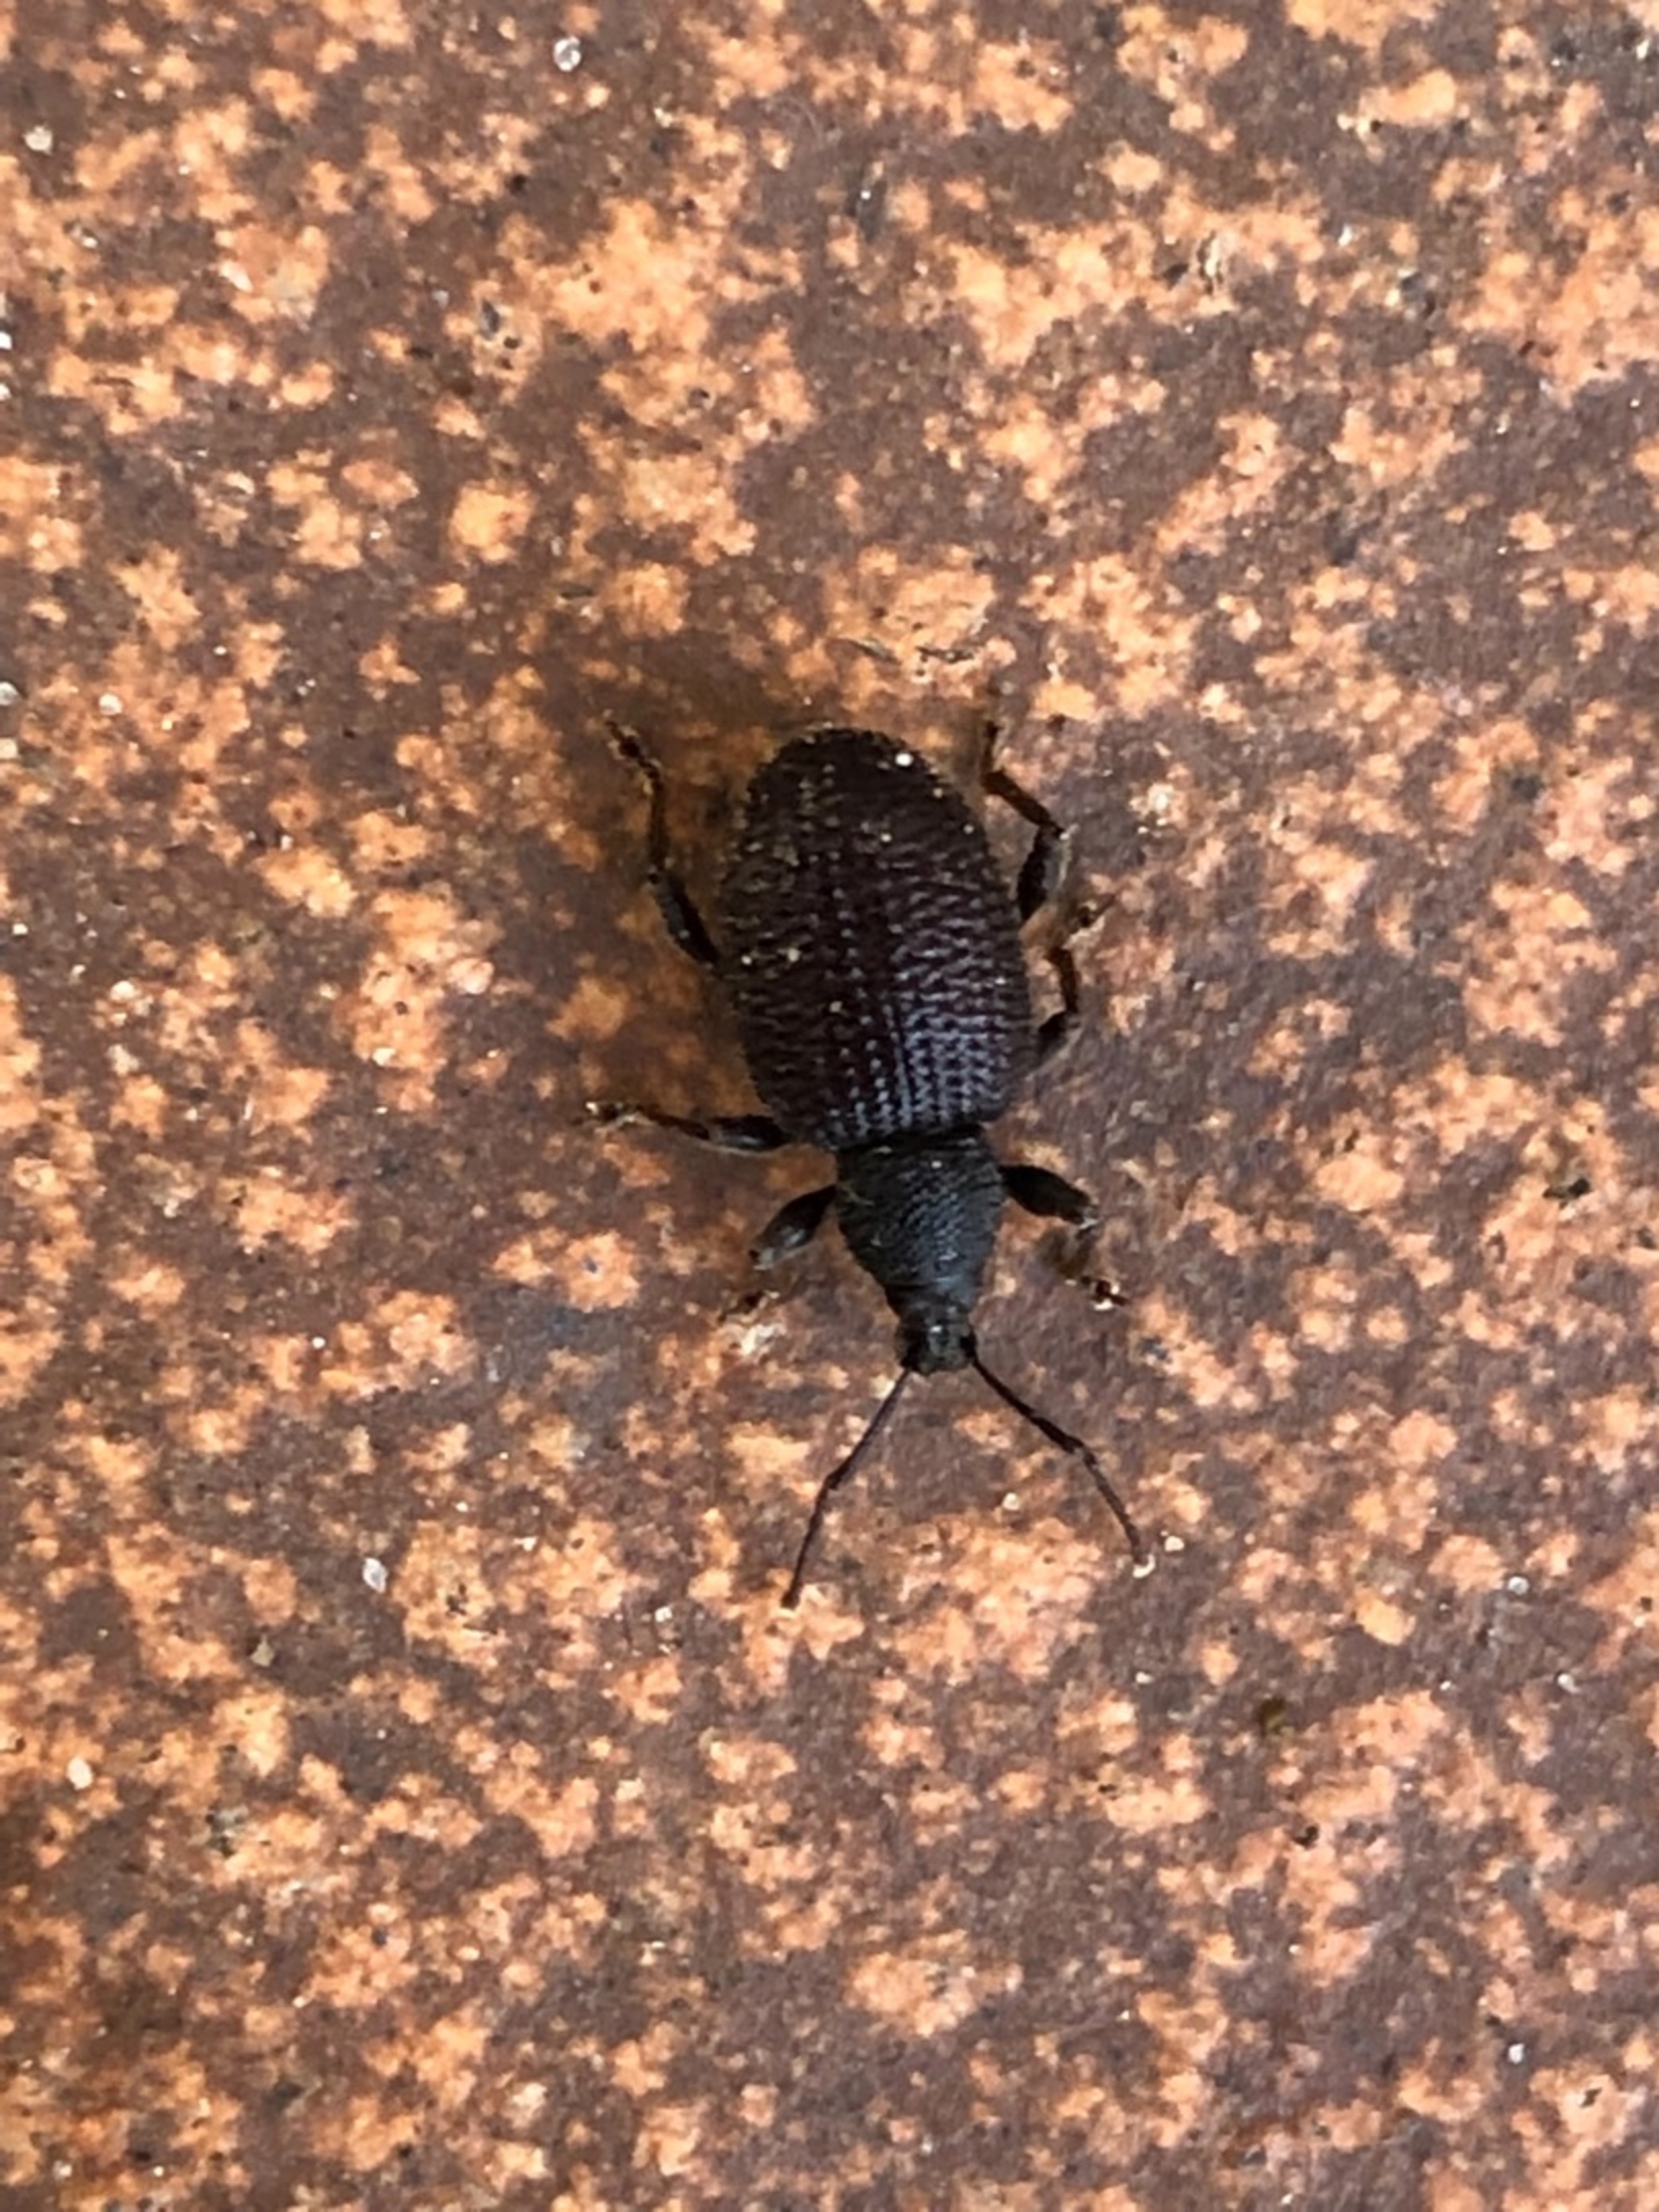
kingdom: Animalia
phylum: Arthropoda
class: Insecta
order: Coleoptera
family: Curculionidae
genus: Otiorhynchus
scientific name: Otiorhynchus rugosostriatus
